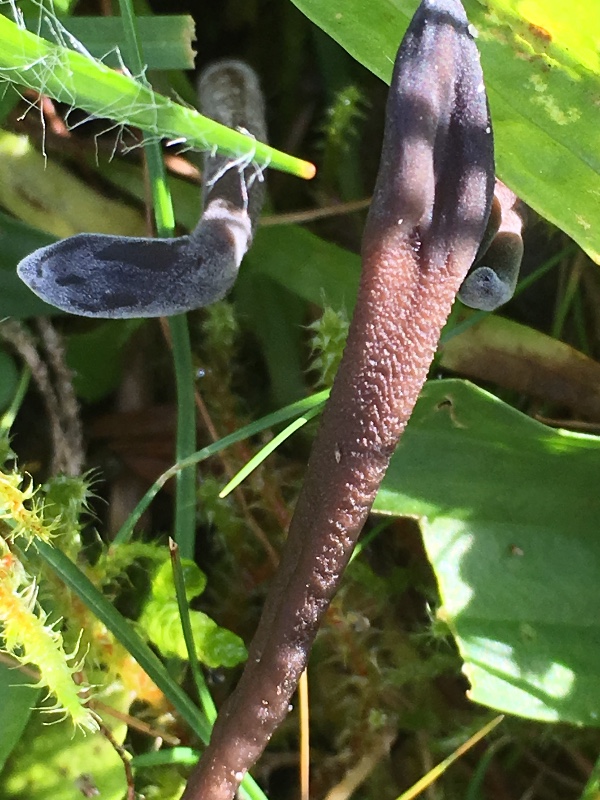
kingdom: Fungi
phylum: Ascomycota
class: Geoglossomycetes
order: Geoglossales
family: Geoglossaceae
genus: Geoglossum
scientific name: Geoglossum
